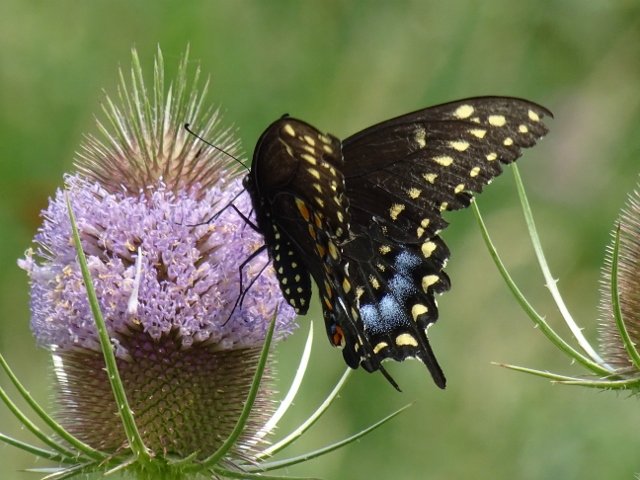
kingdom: Animalia
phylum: Arthropoda
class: Insecta
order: Lepidoptera
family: Papilionidae
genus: Papilio
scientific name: Papilio polyxenes
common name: Black Swallowtail
